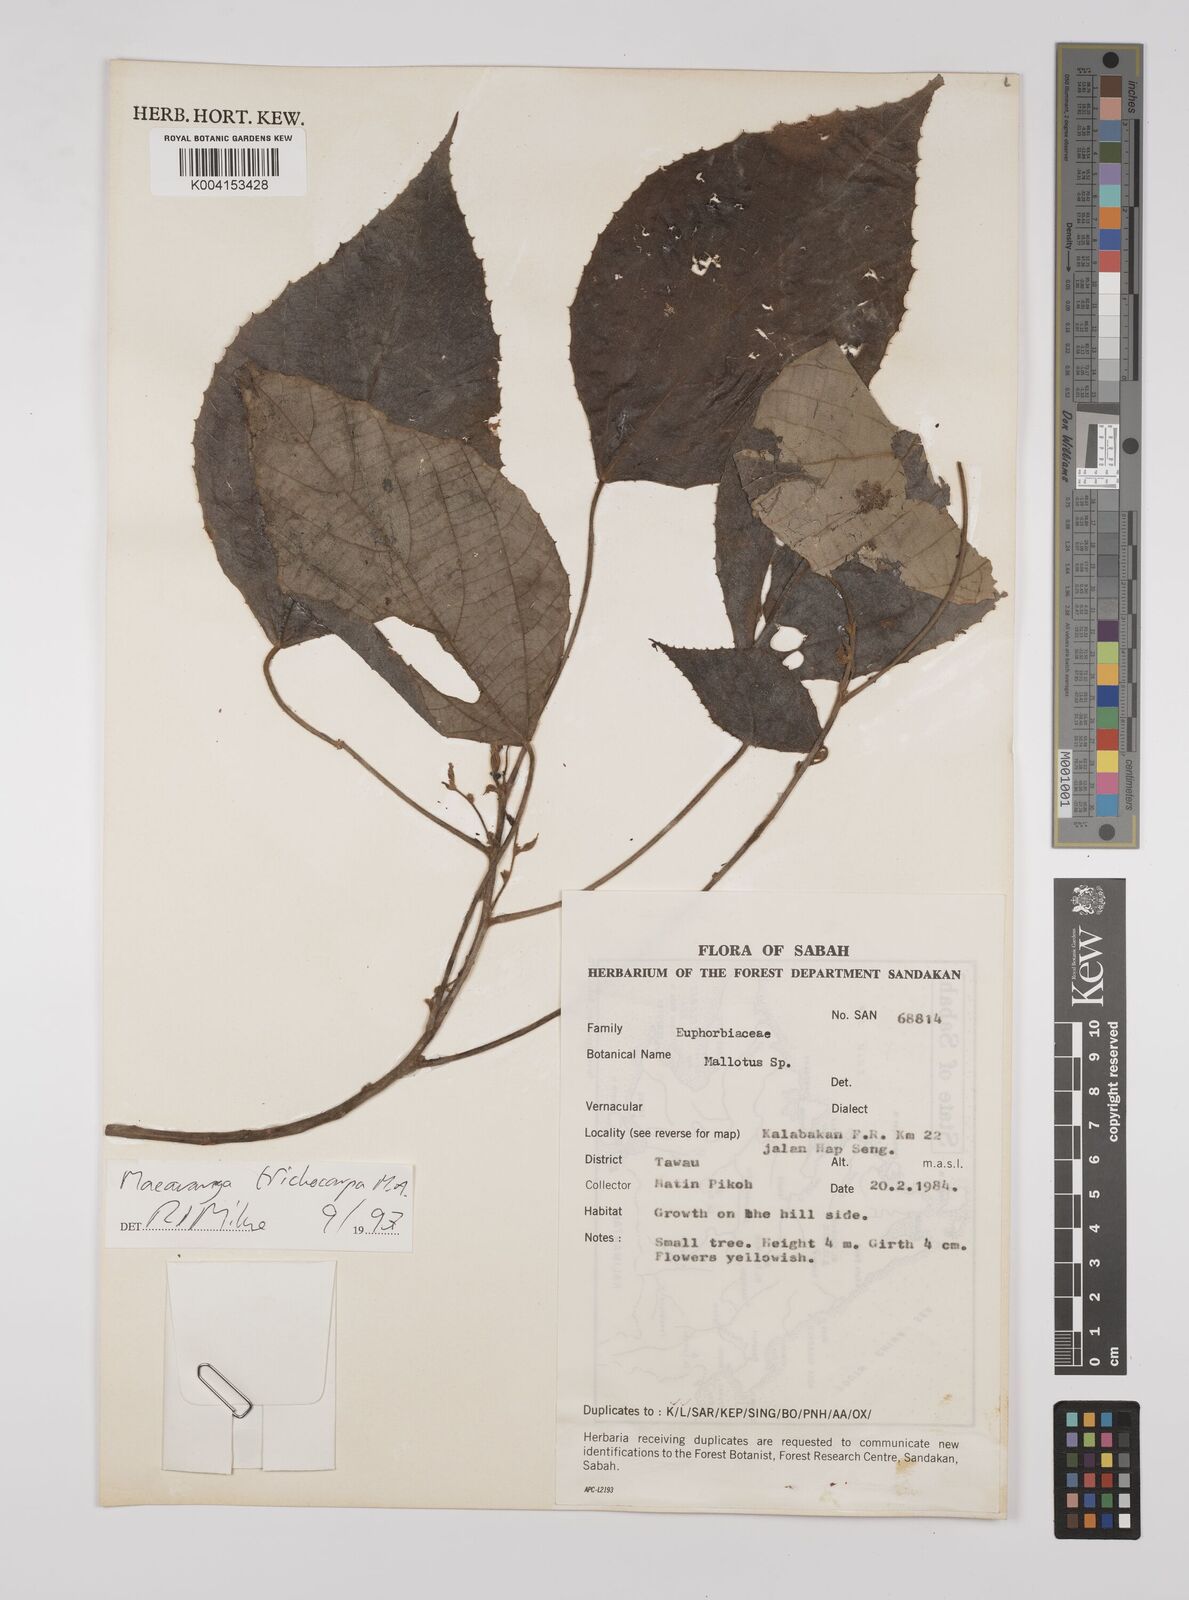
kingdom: Plantae
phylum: Tracheophyta
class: Magnoliopsida
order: Malpighiales
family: Euphorbiaceae
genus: Macaranga
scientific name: Macaranga trichocarpa
